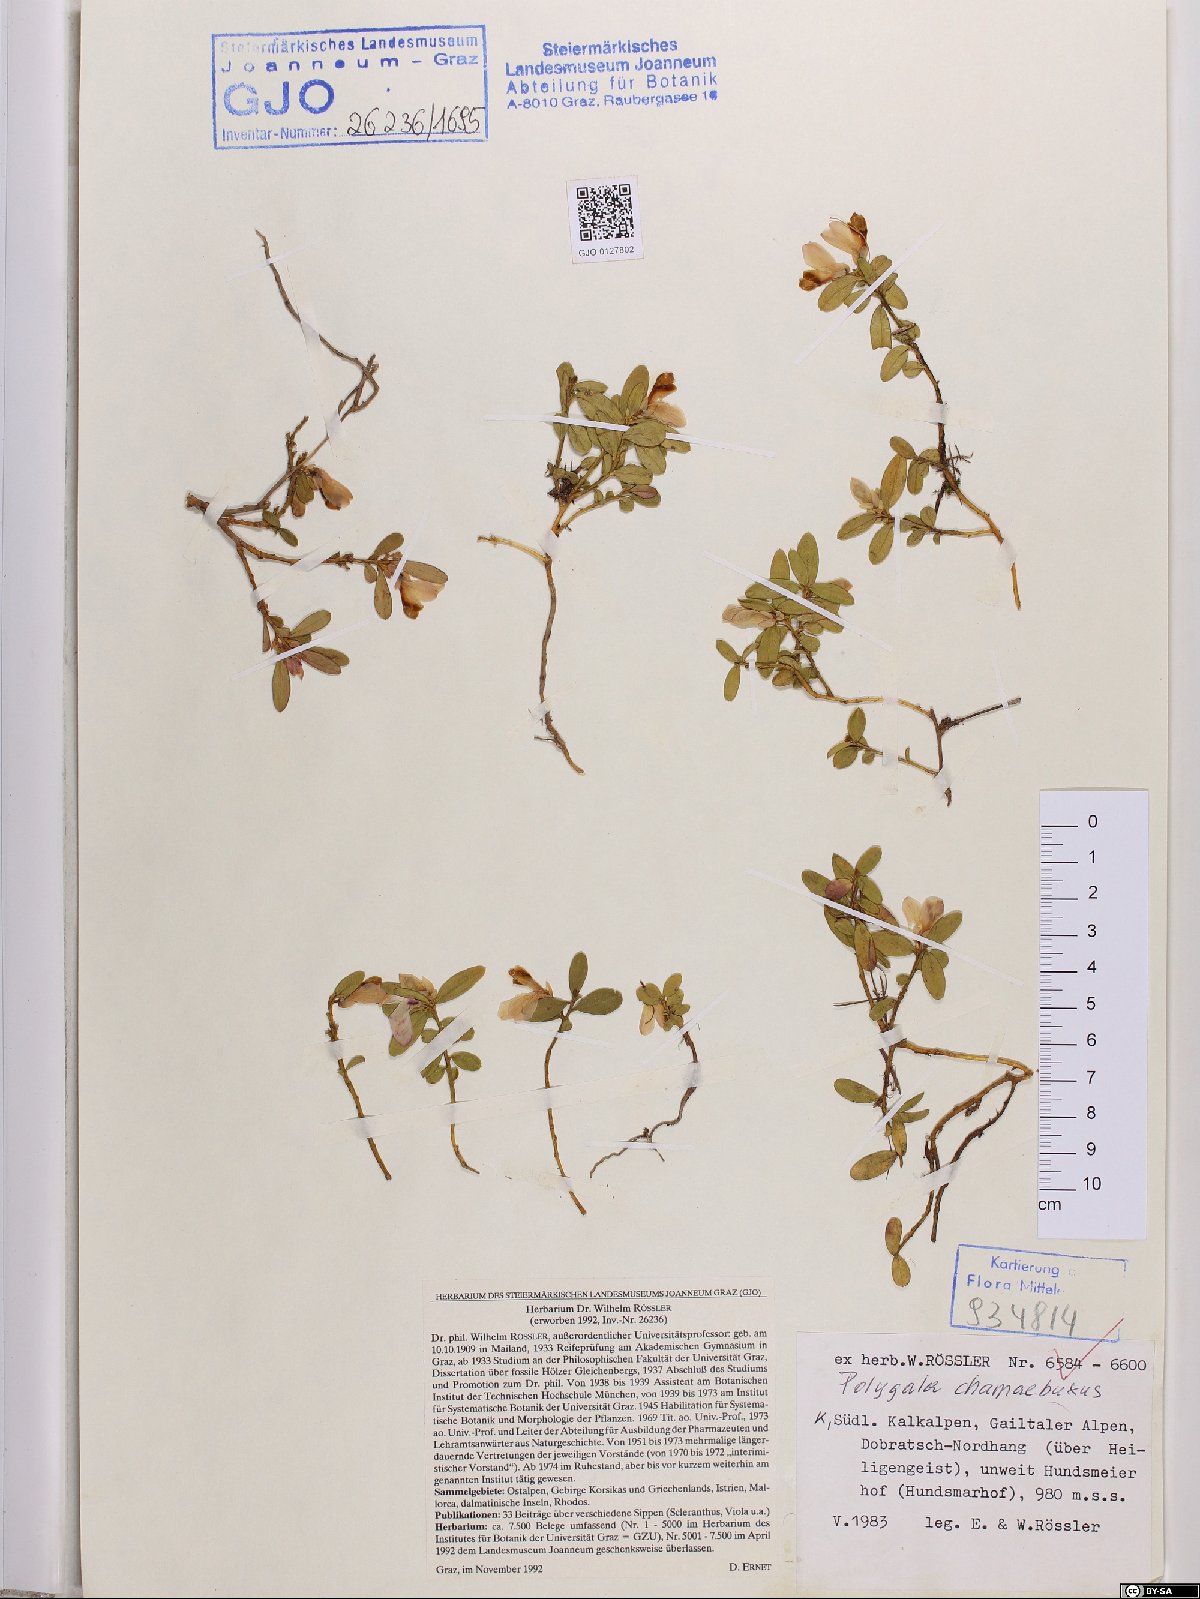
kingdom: Plantae
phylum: Tracheophyta
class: Magnoliopsida
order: Fabales
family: Polygalaceae
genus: Polygaloides
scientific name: Polygaloides chamaebuxus
